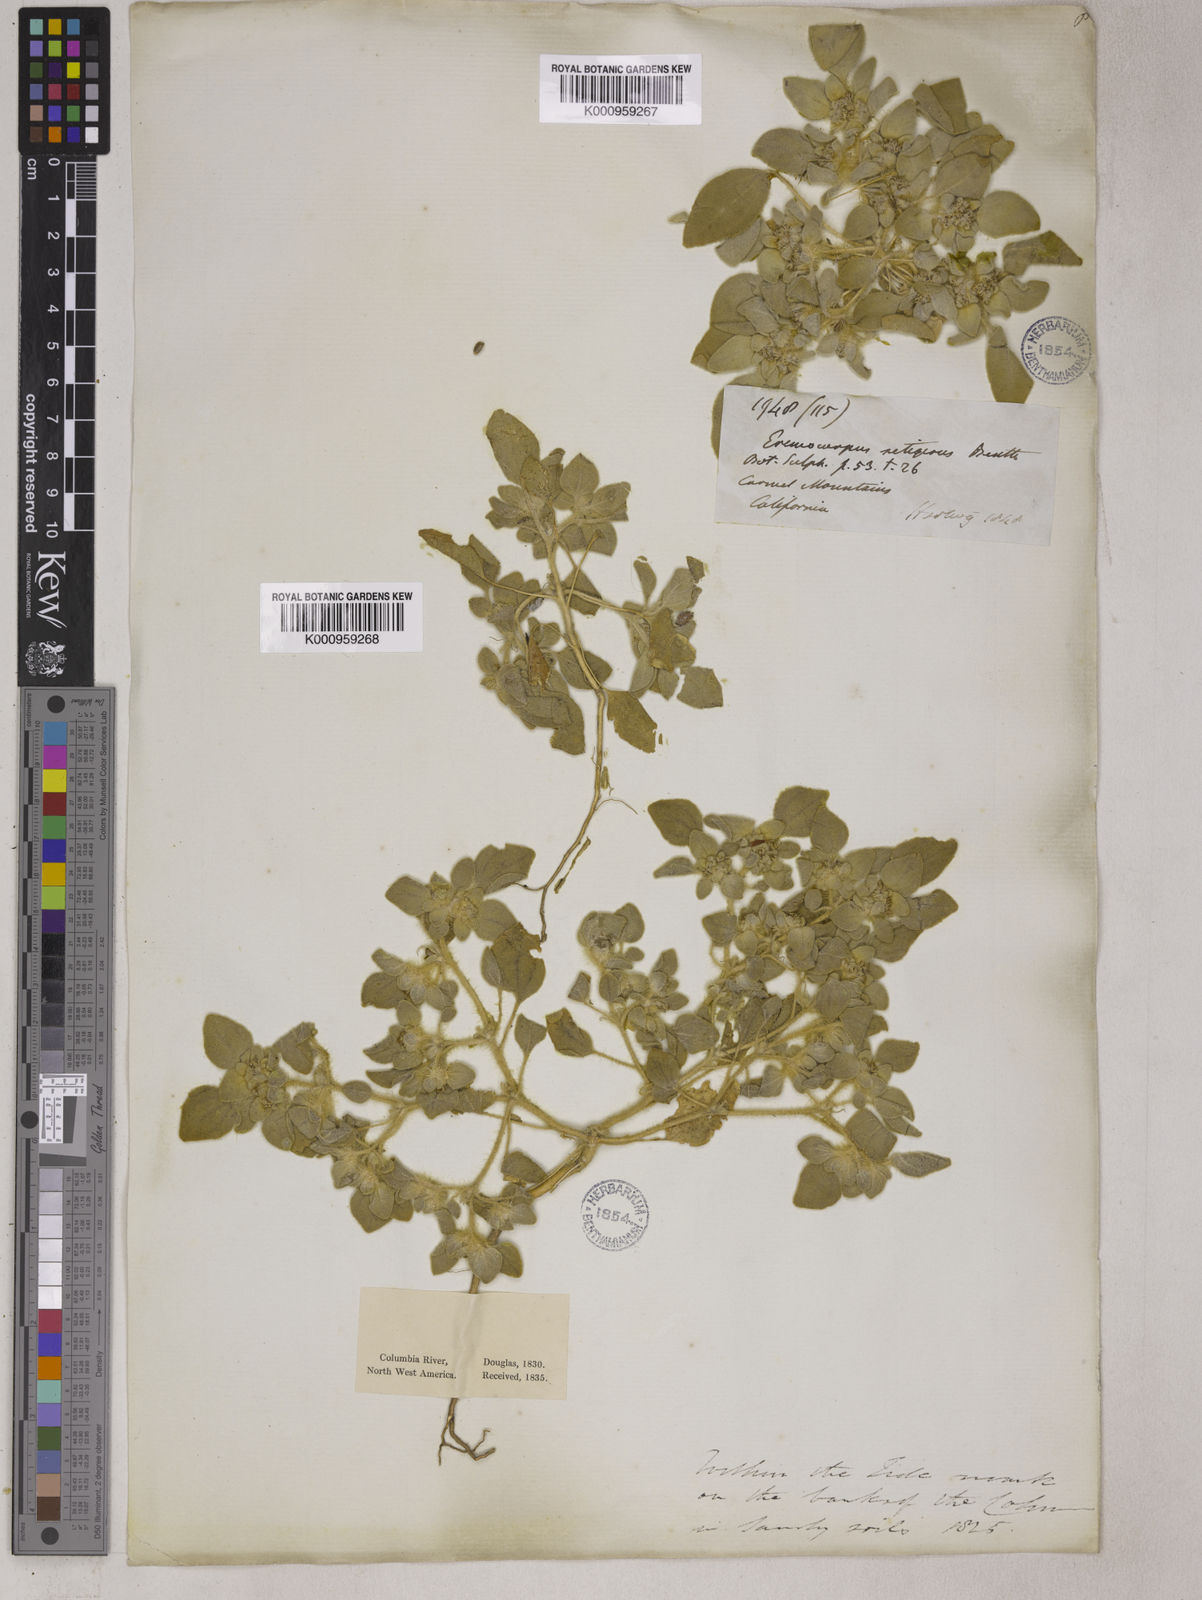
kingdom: Plantae
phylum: Tracheophyta
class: Magnoliopsida
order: Apiales
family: Apiaceae
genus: Eremocarpus
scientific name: Eremocarpus
